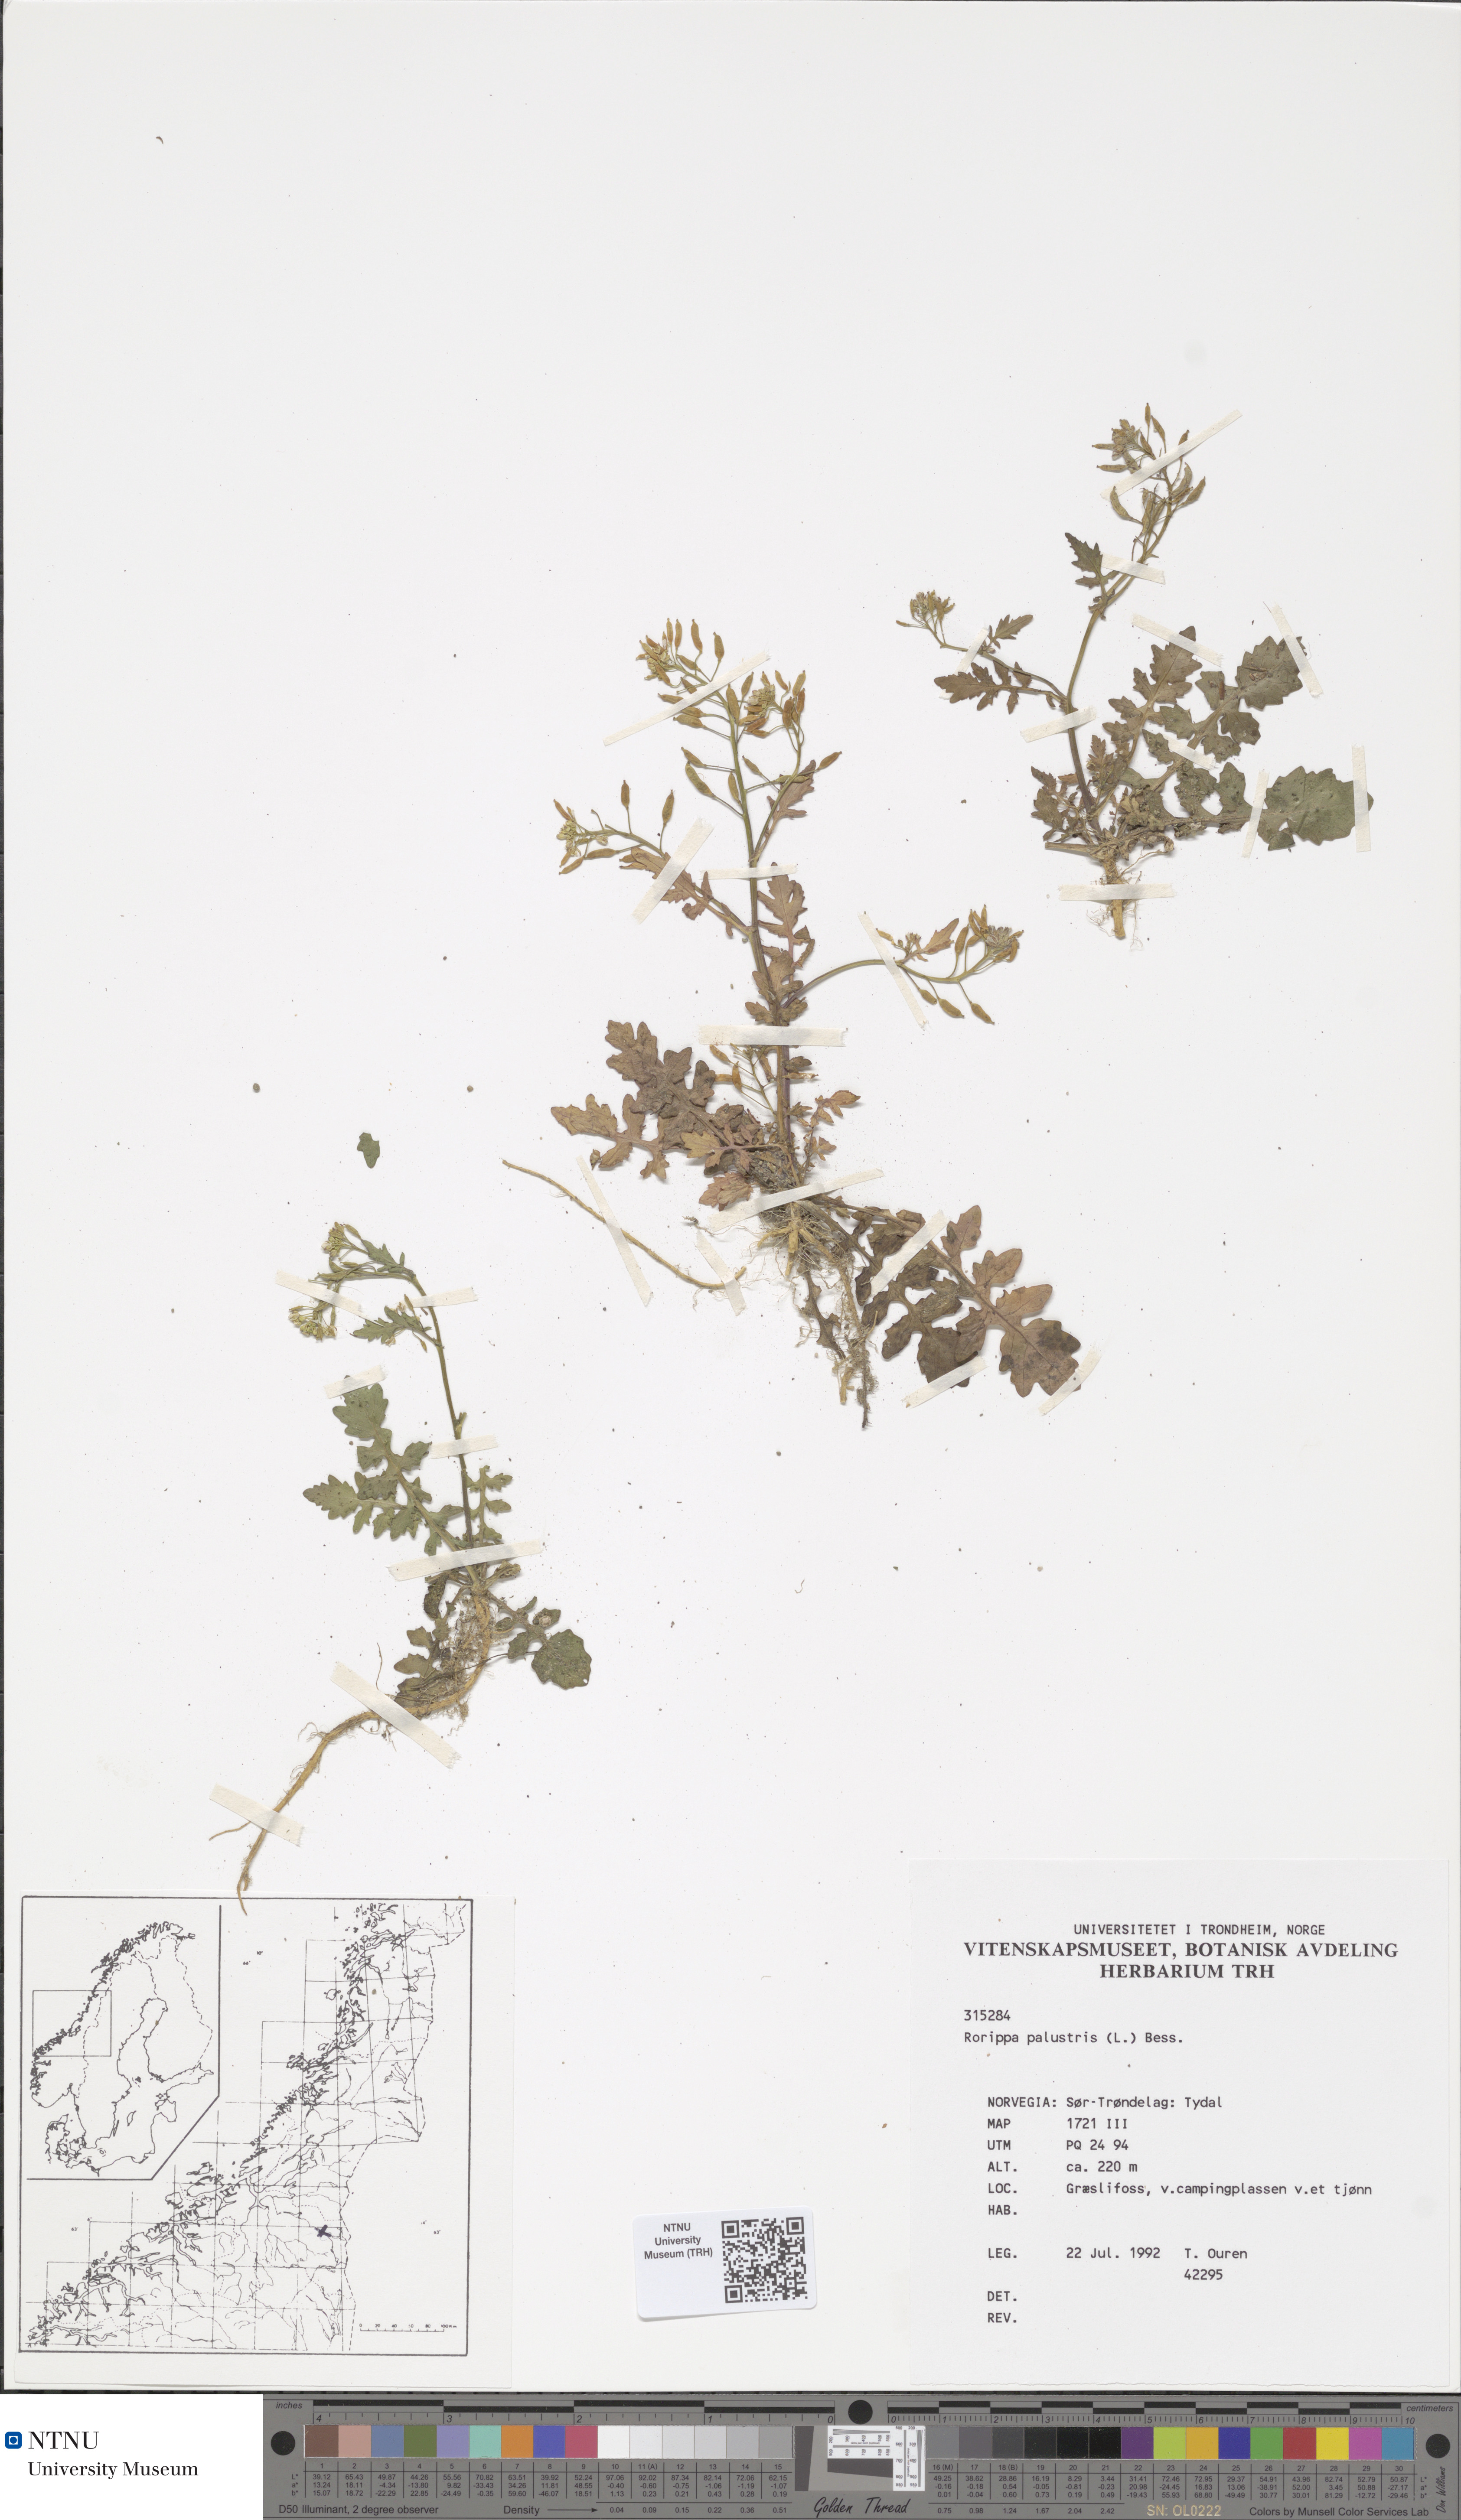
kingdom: Plantae
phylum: Tracheophyta
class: Magnoliopsida
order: Brassicales
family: Brassicaceae
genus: Rorippa
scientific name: Rorippa palustris
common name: Marsh yellow-cress
